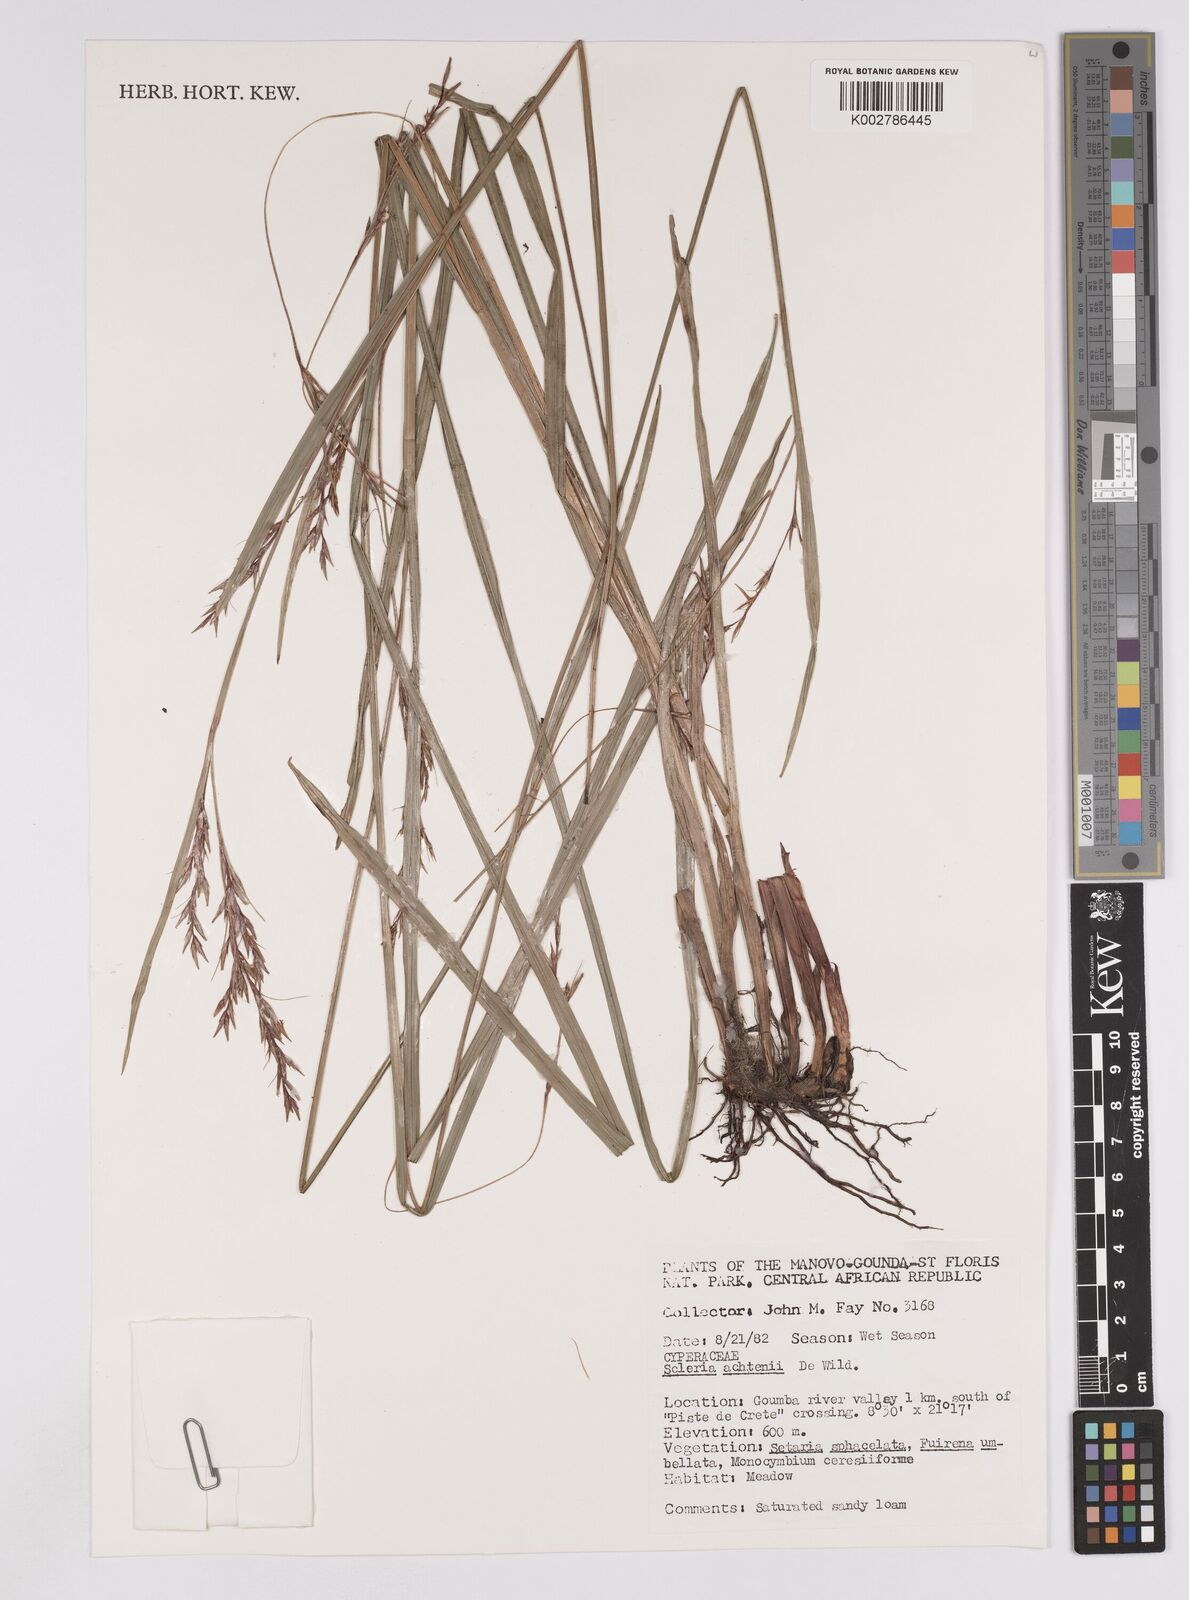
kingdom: Plantae
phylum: Tracheophyta
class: Liliopsida
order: Poales
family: Cyperaceae
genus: Scleria
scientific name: Scleria achtenii
